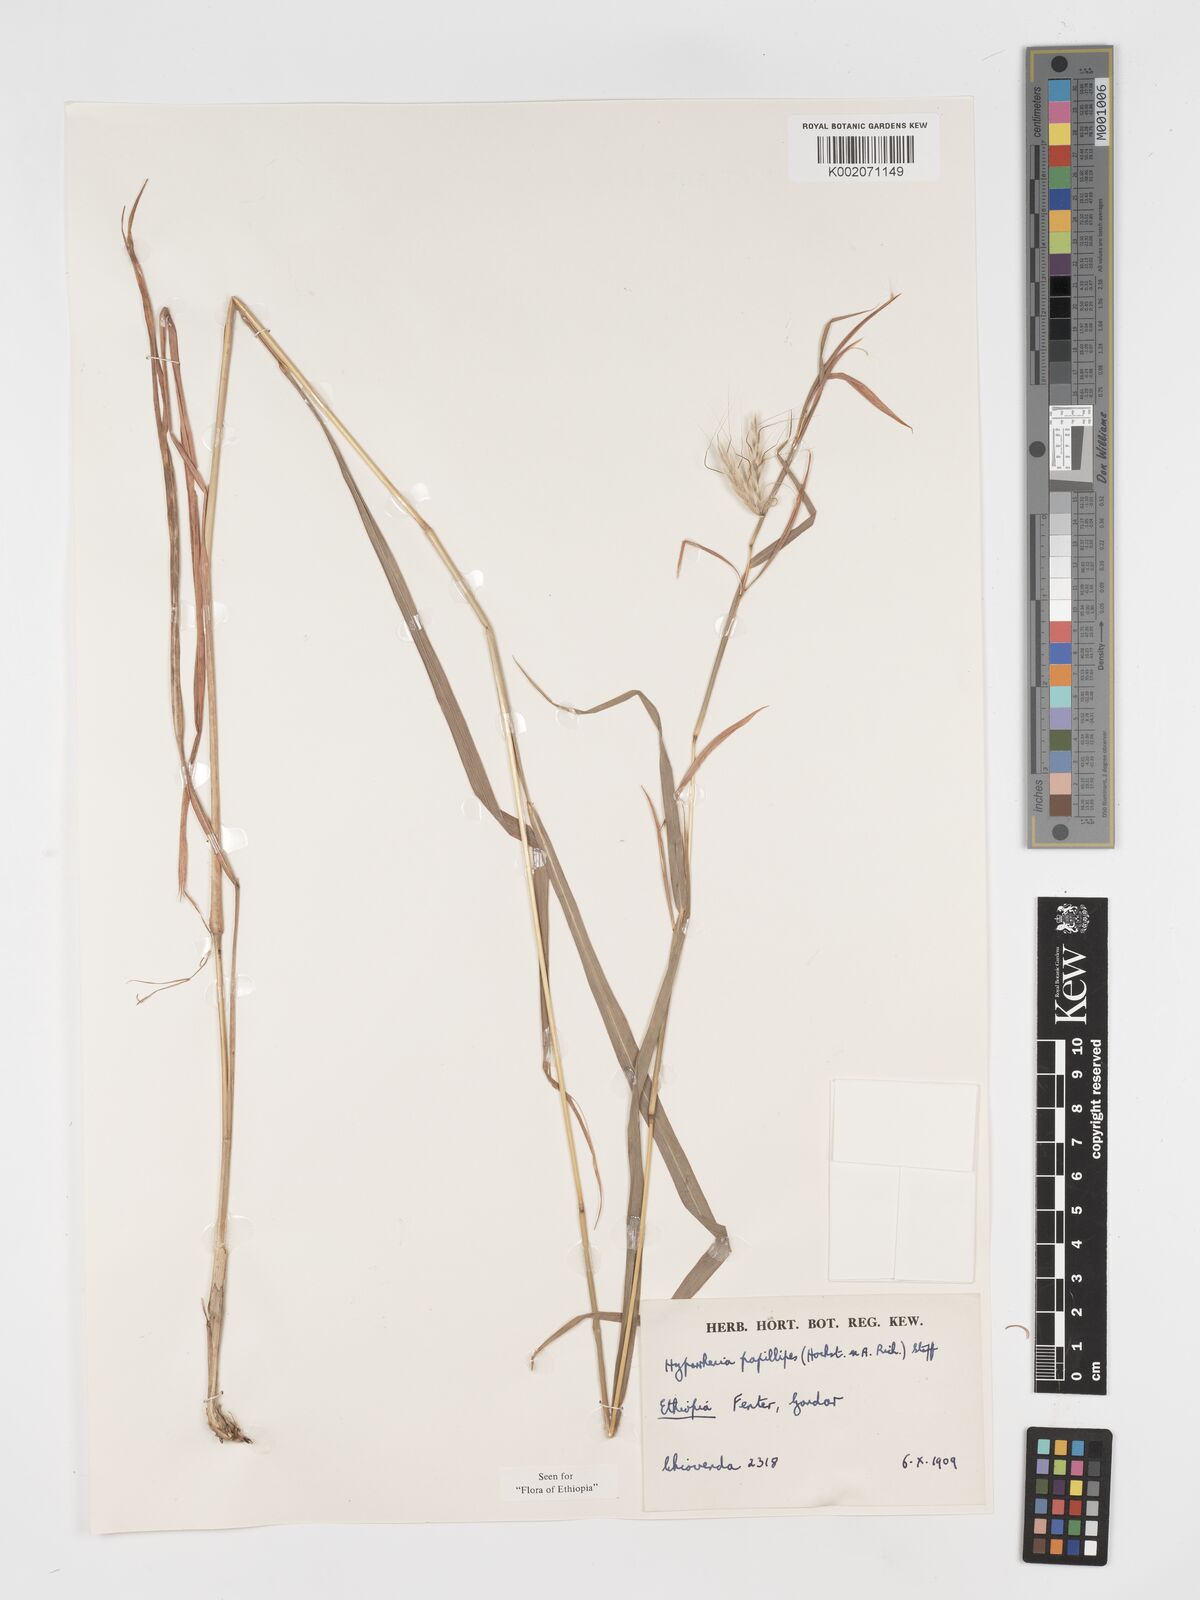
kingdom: Plantae
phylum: Tracheophyta
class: Liliopsida
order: Poales
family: Poaceae
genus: Hyparrhenia
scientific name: Hyparrhenia papillipes
